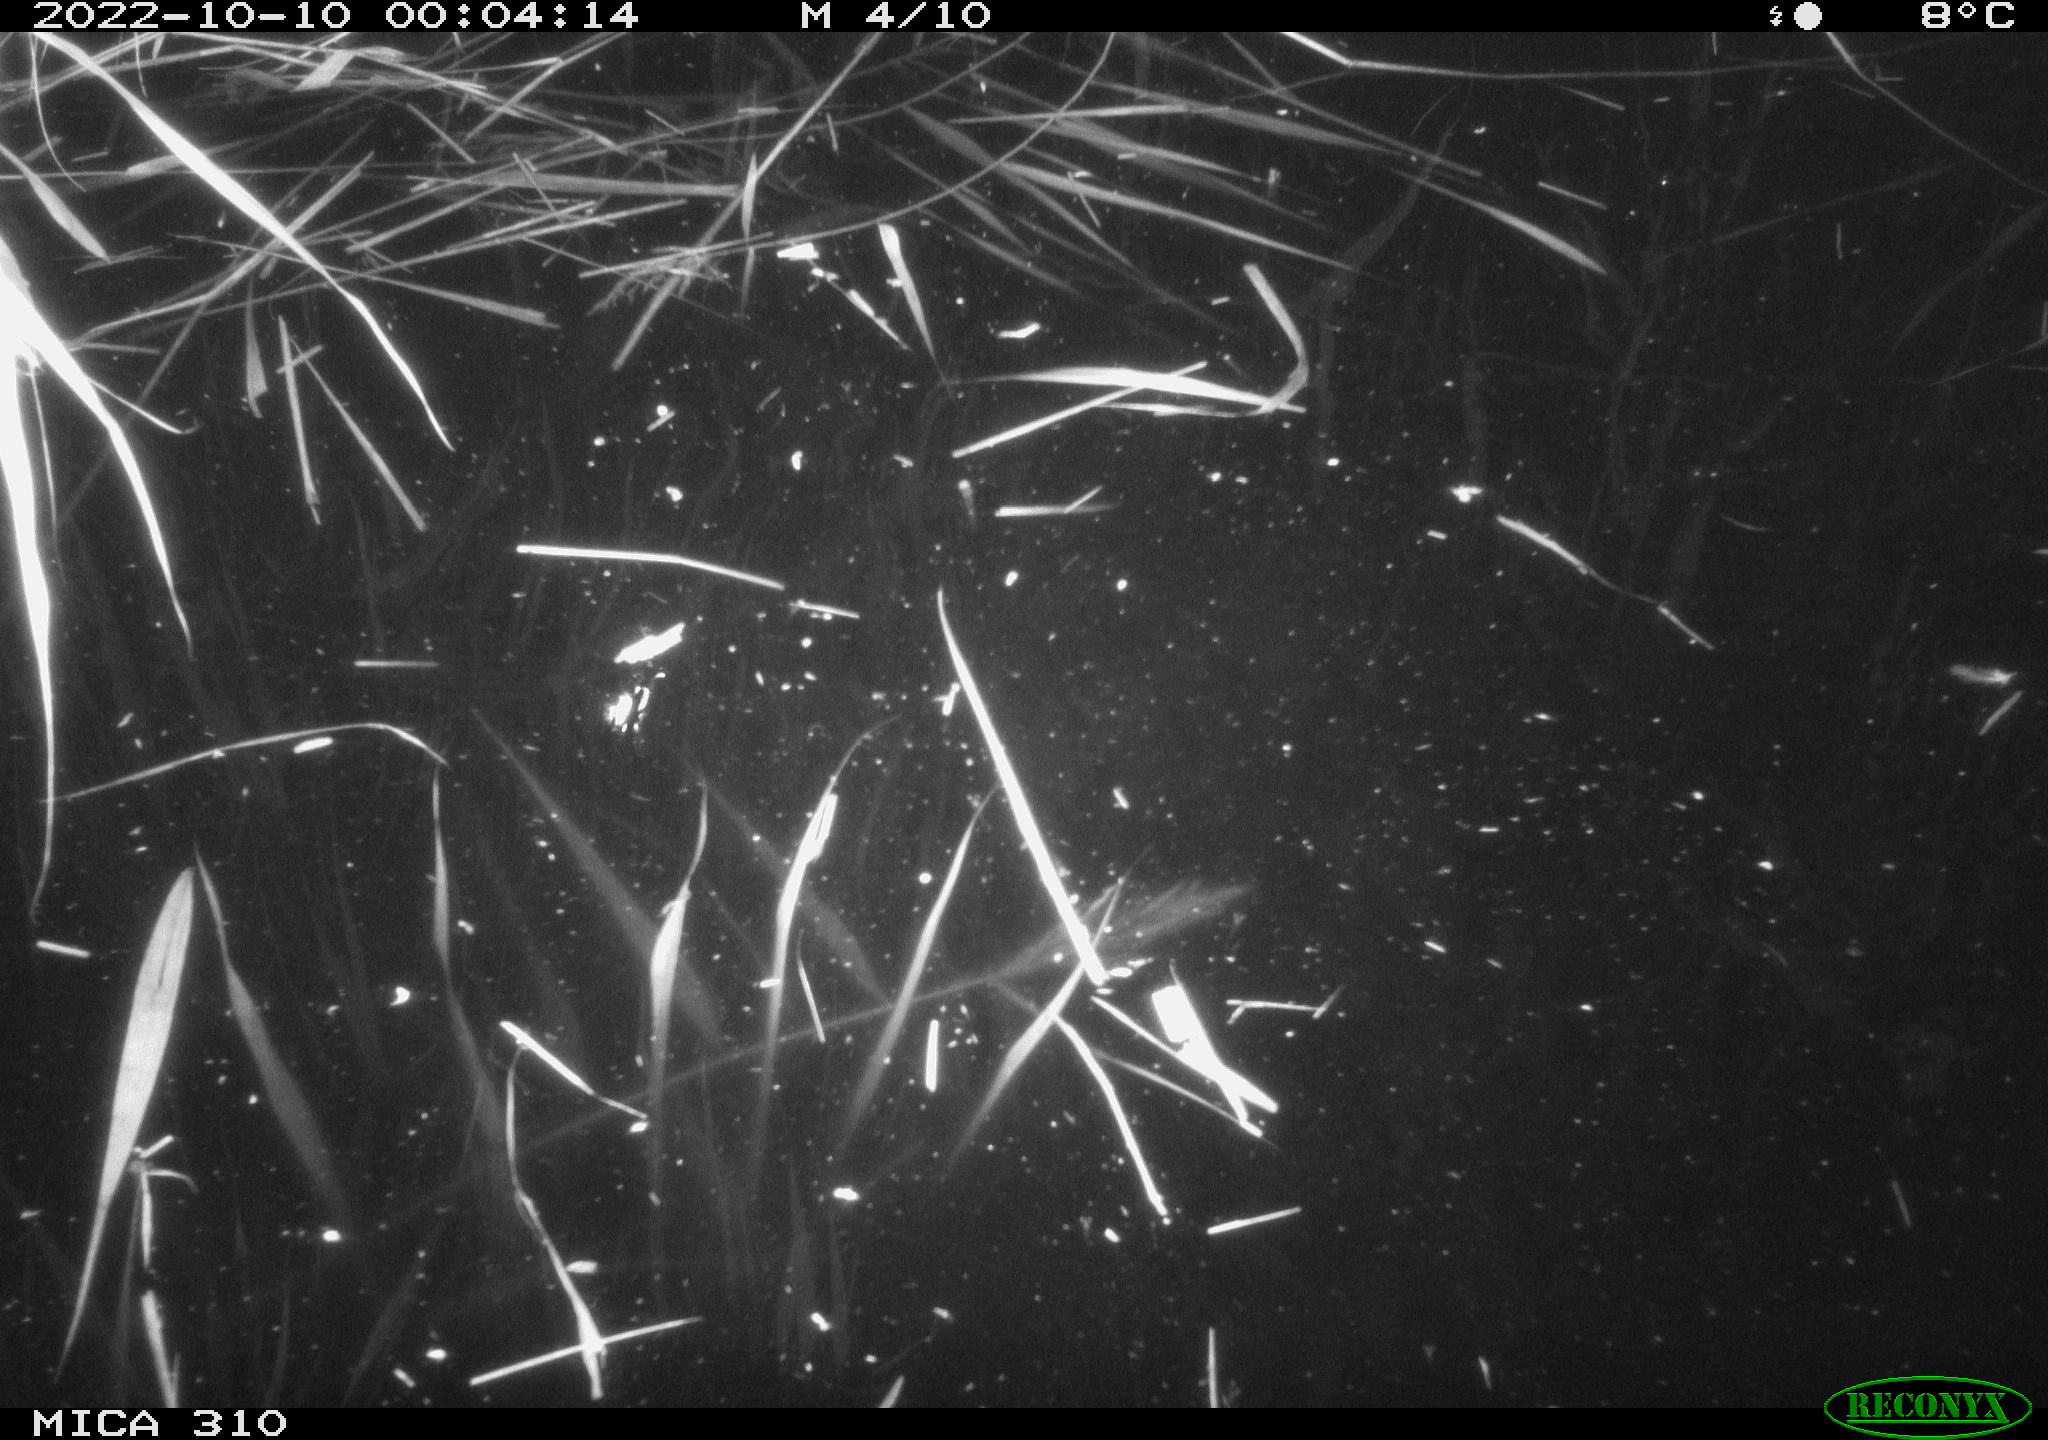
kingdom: Animalia
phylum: Chordata
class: Mammalia
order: Rodentia
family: Muridae
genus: Rattus
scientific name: Rattus norvegicus
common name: Brown rat
